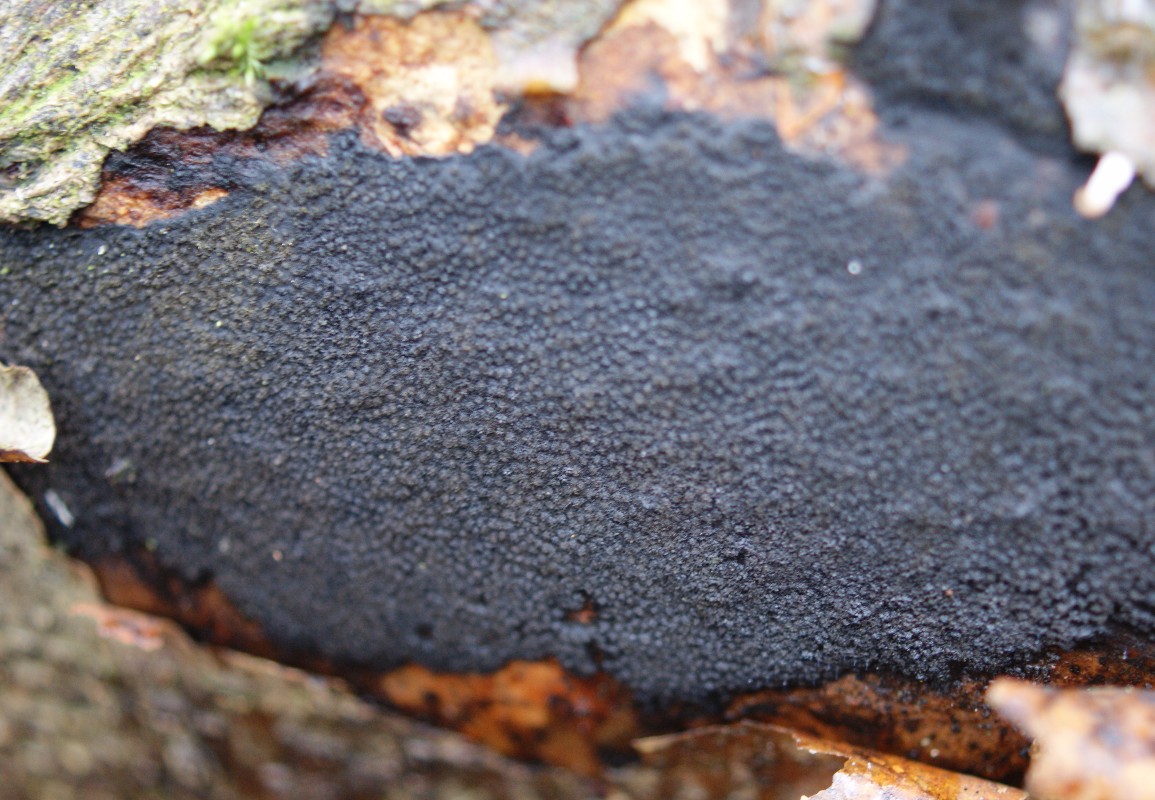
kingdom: Fungi
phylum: Ascomycota
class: Sordariomycetes
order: Xylariales
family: Diatrypaceae
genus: Eutypa
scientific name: Eutypa spinosa
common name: grov kulskorpe
